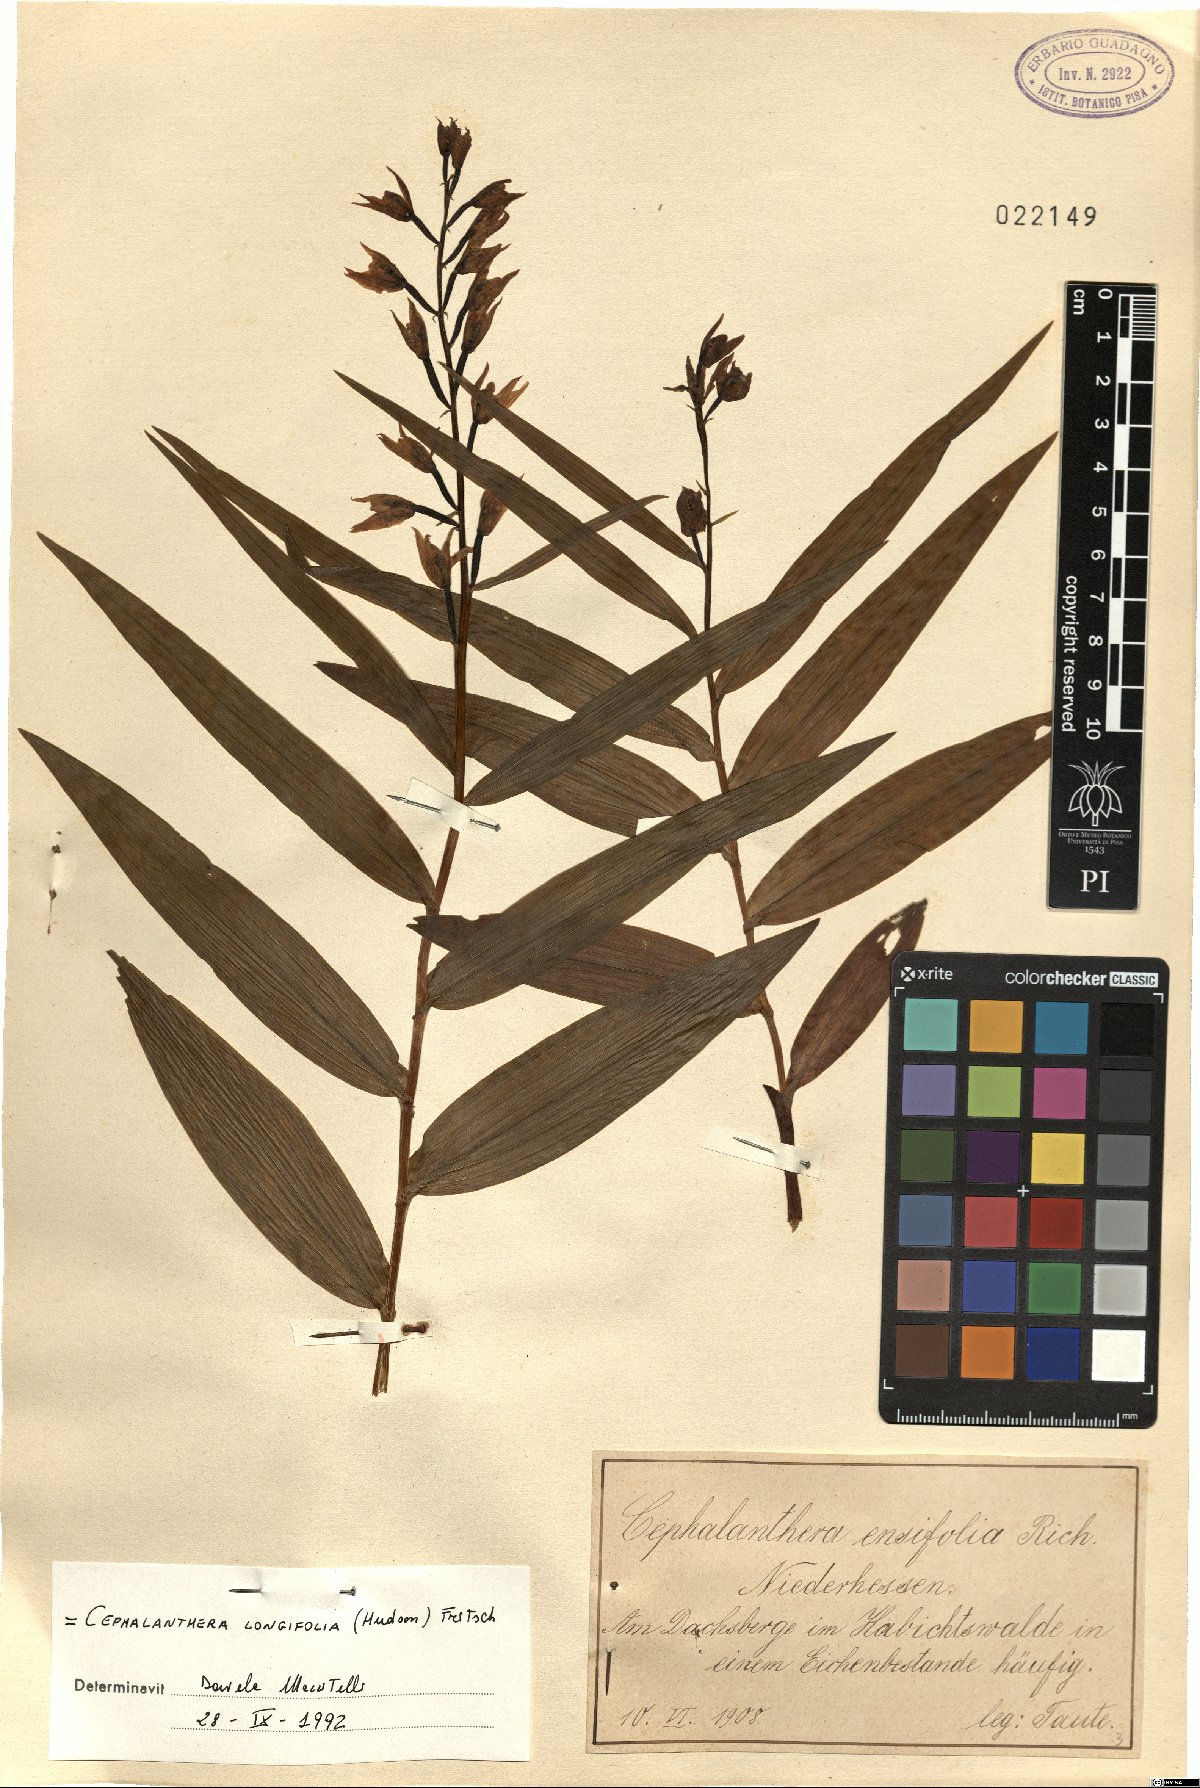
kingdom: Plantae
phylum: Tracheophyta
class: Liliopsida
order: Asparagales
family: Orchidaceae
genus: Cephalanthera
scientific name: Cephalanthera longifolia
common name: Narrow-leaved helleborine
